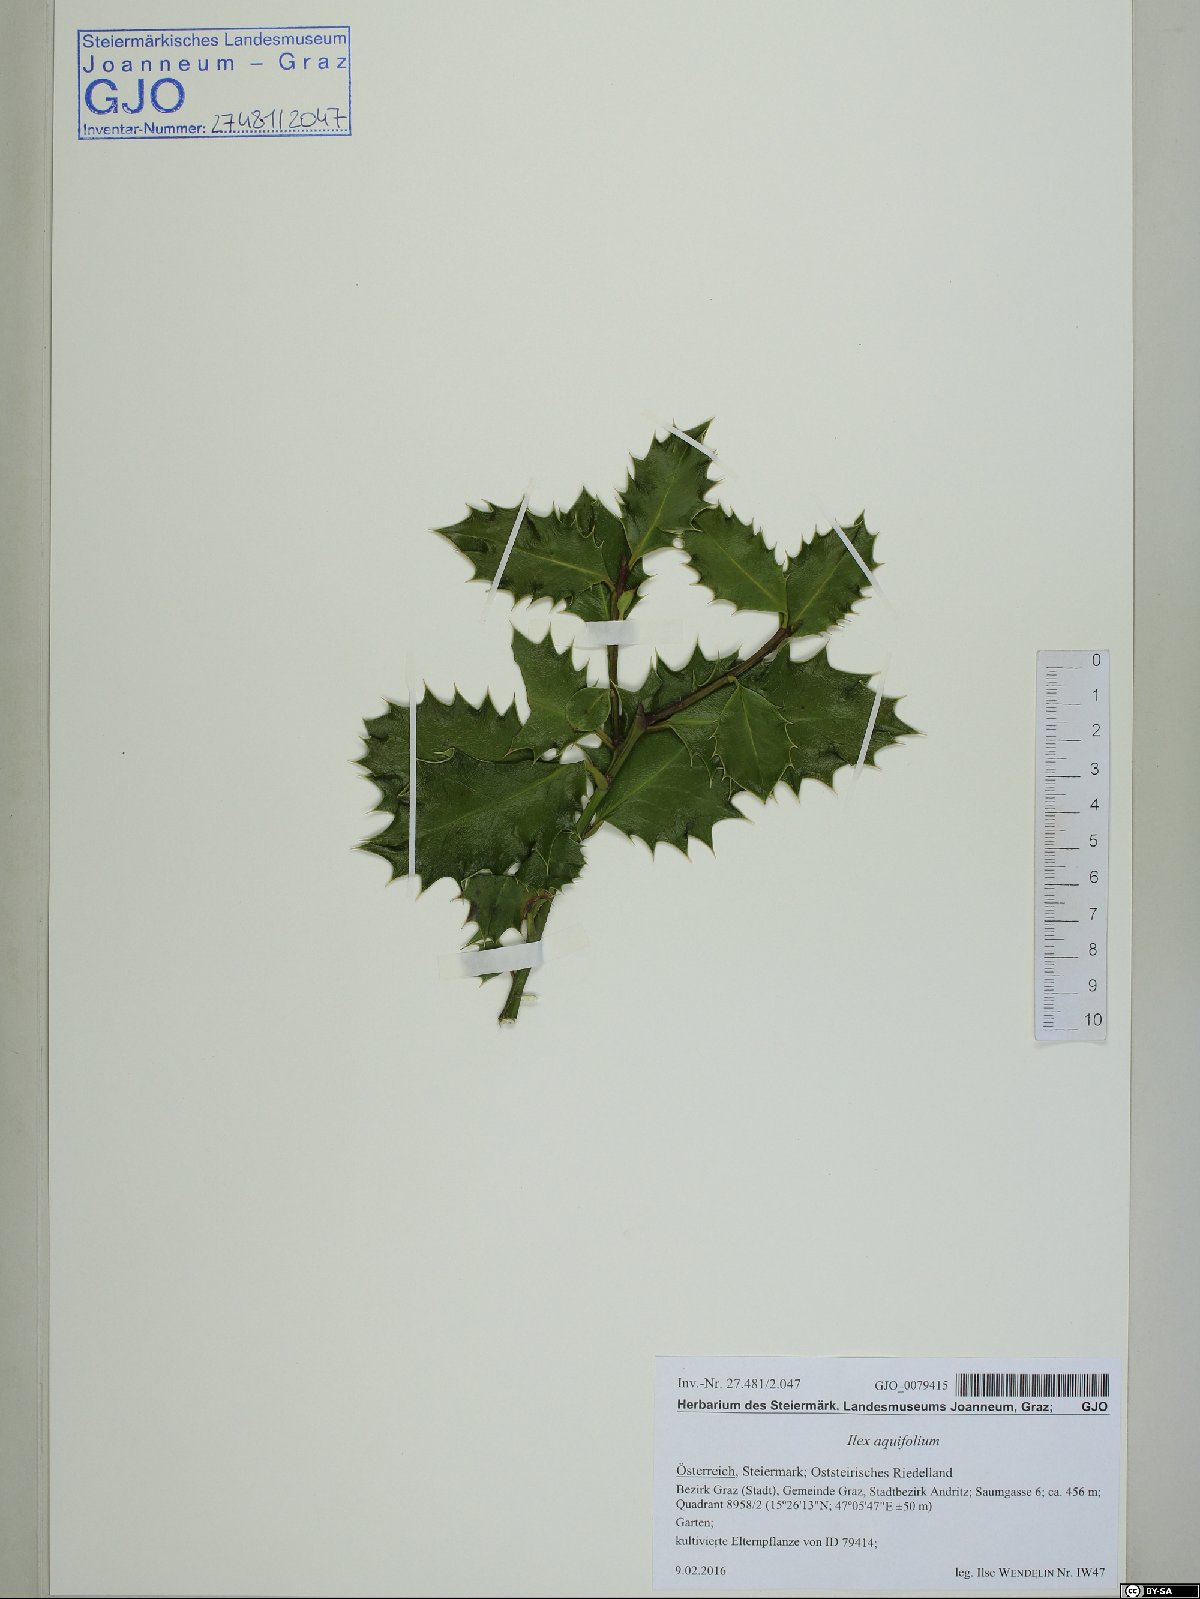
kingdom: Plantae
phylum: Tracheophyta
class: Magnoliopsida
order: Aquifoliales
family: Aquifoliaceae
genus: Ilex
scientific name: Ilex aquifolium
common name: English holly
